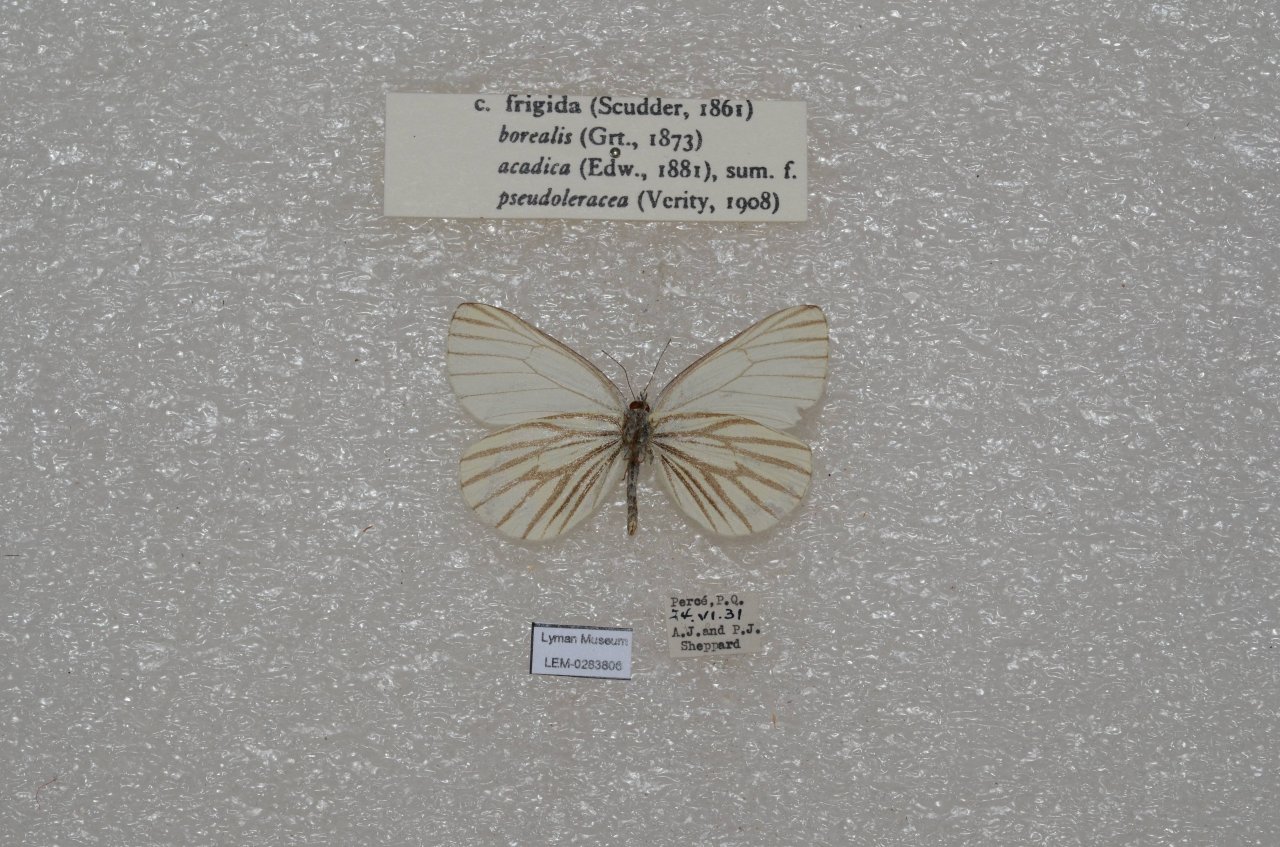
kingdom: Animalia
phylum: Arthropoda
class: Insecta
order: Lepidoptera
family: Pieridae
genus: Pieris
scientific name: Pieris oleracea
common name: Mustard White
